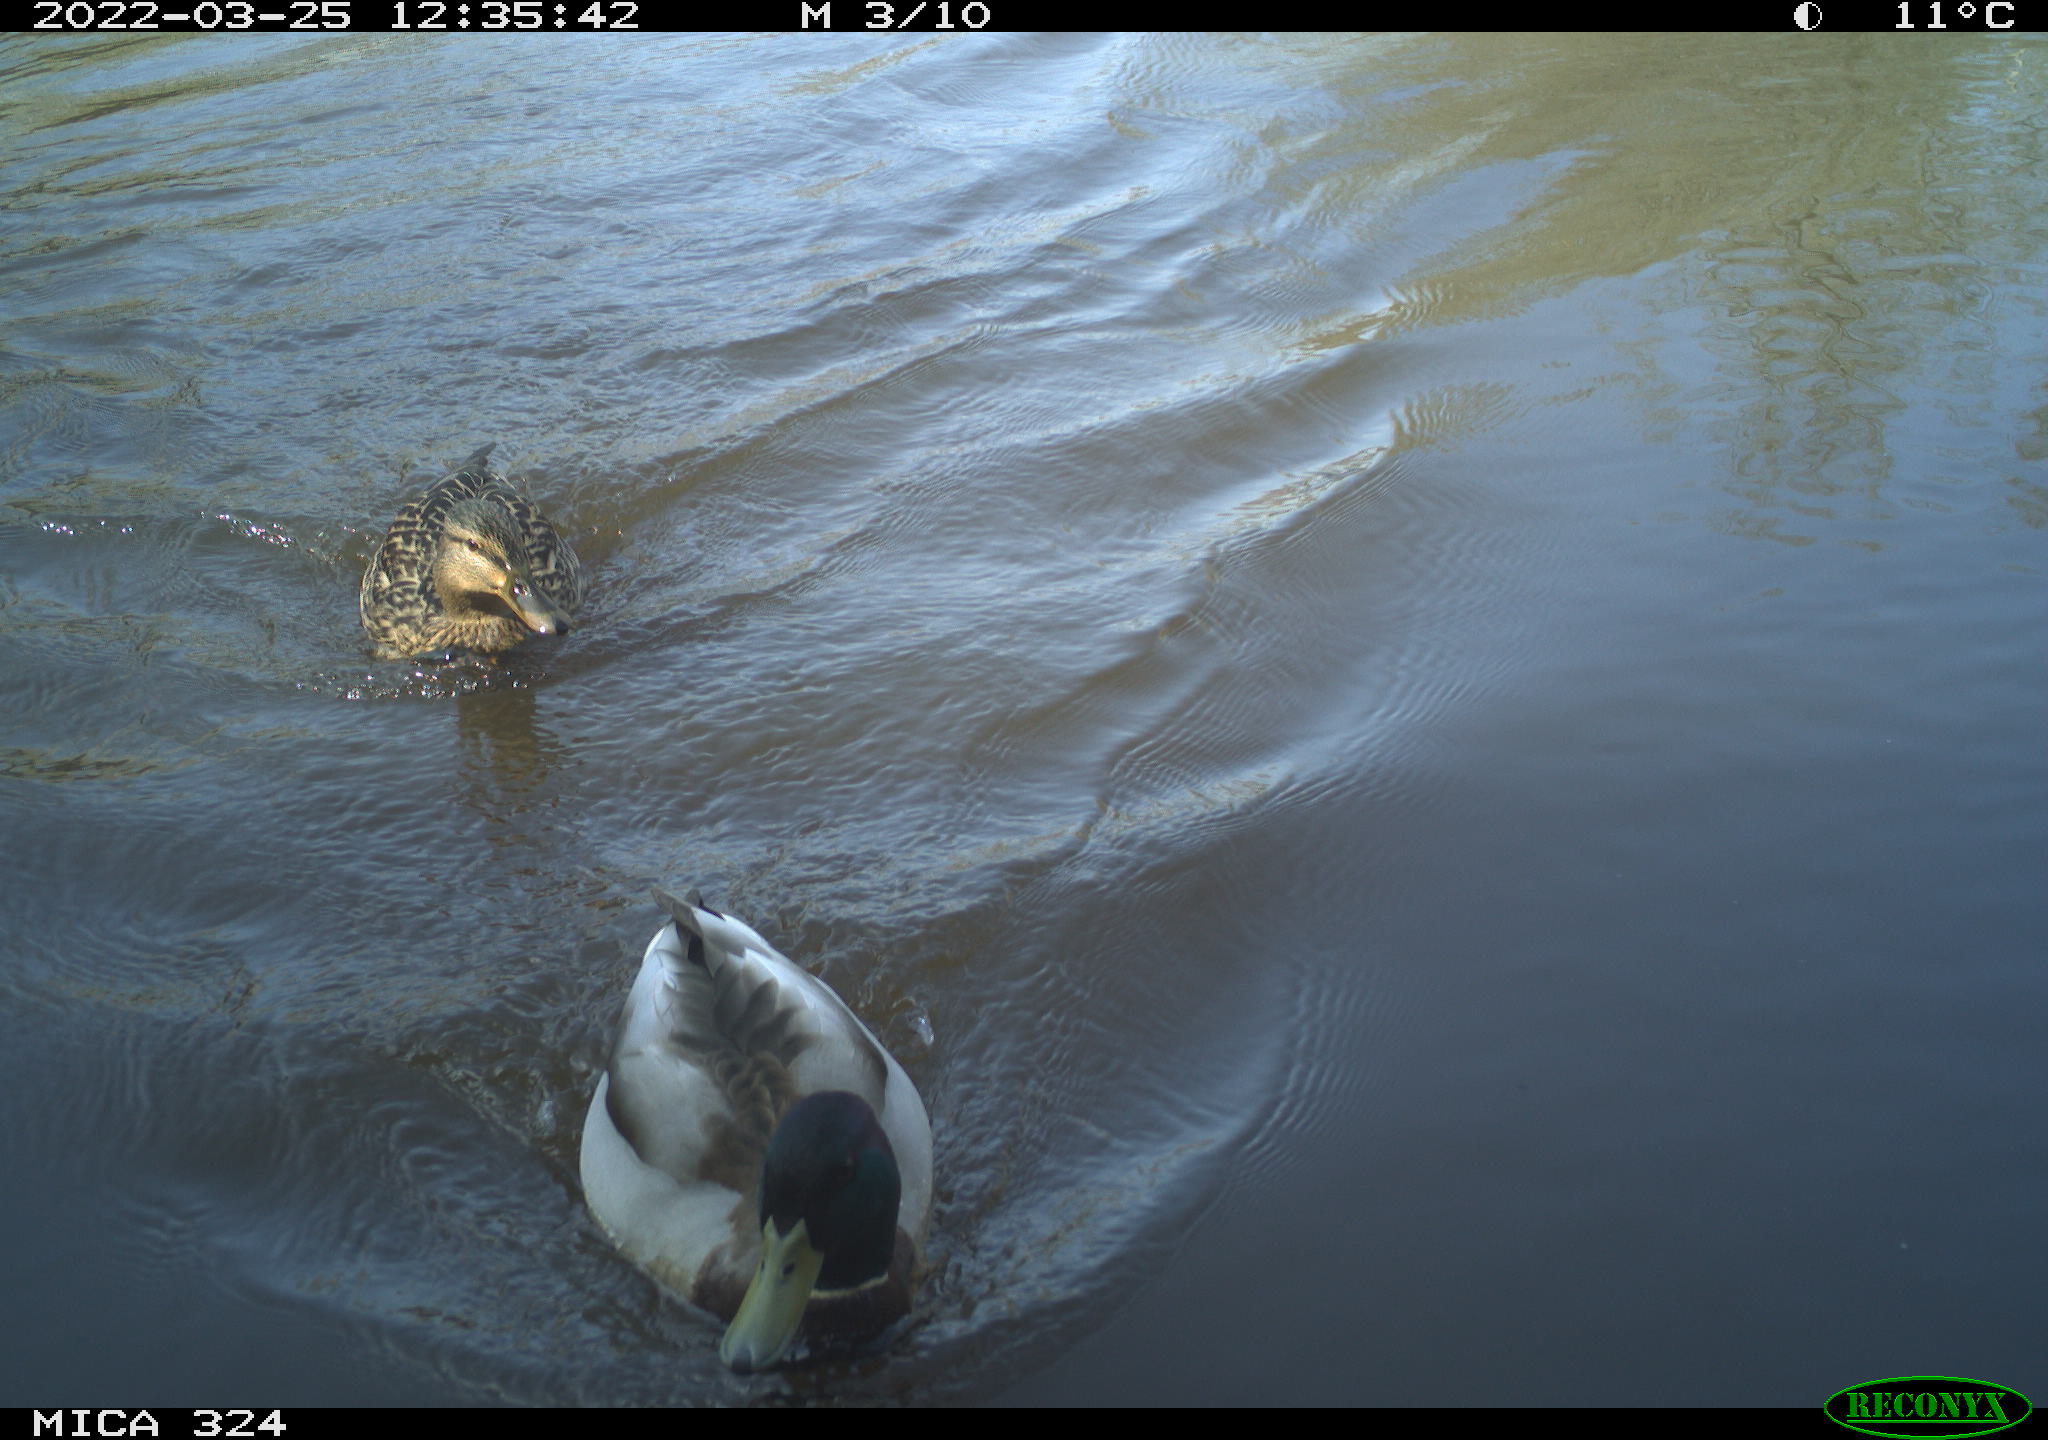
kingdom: Animalia
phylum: Chordata
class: Aves
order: Gruiformes
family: Rallidae
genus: Fulica
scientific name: Fulica atra
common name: Eurasian coot
